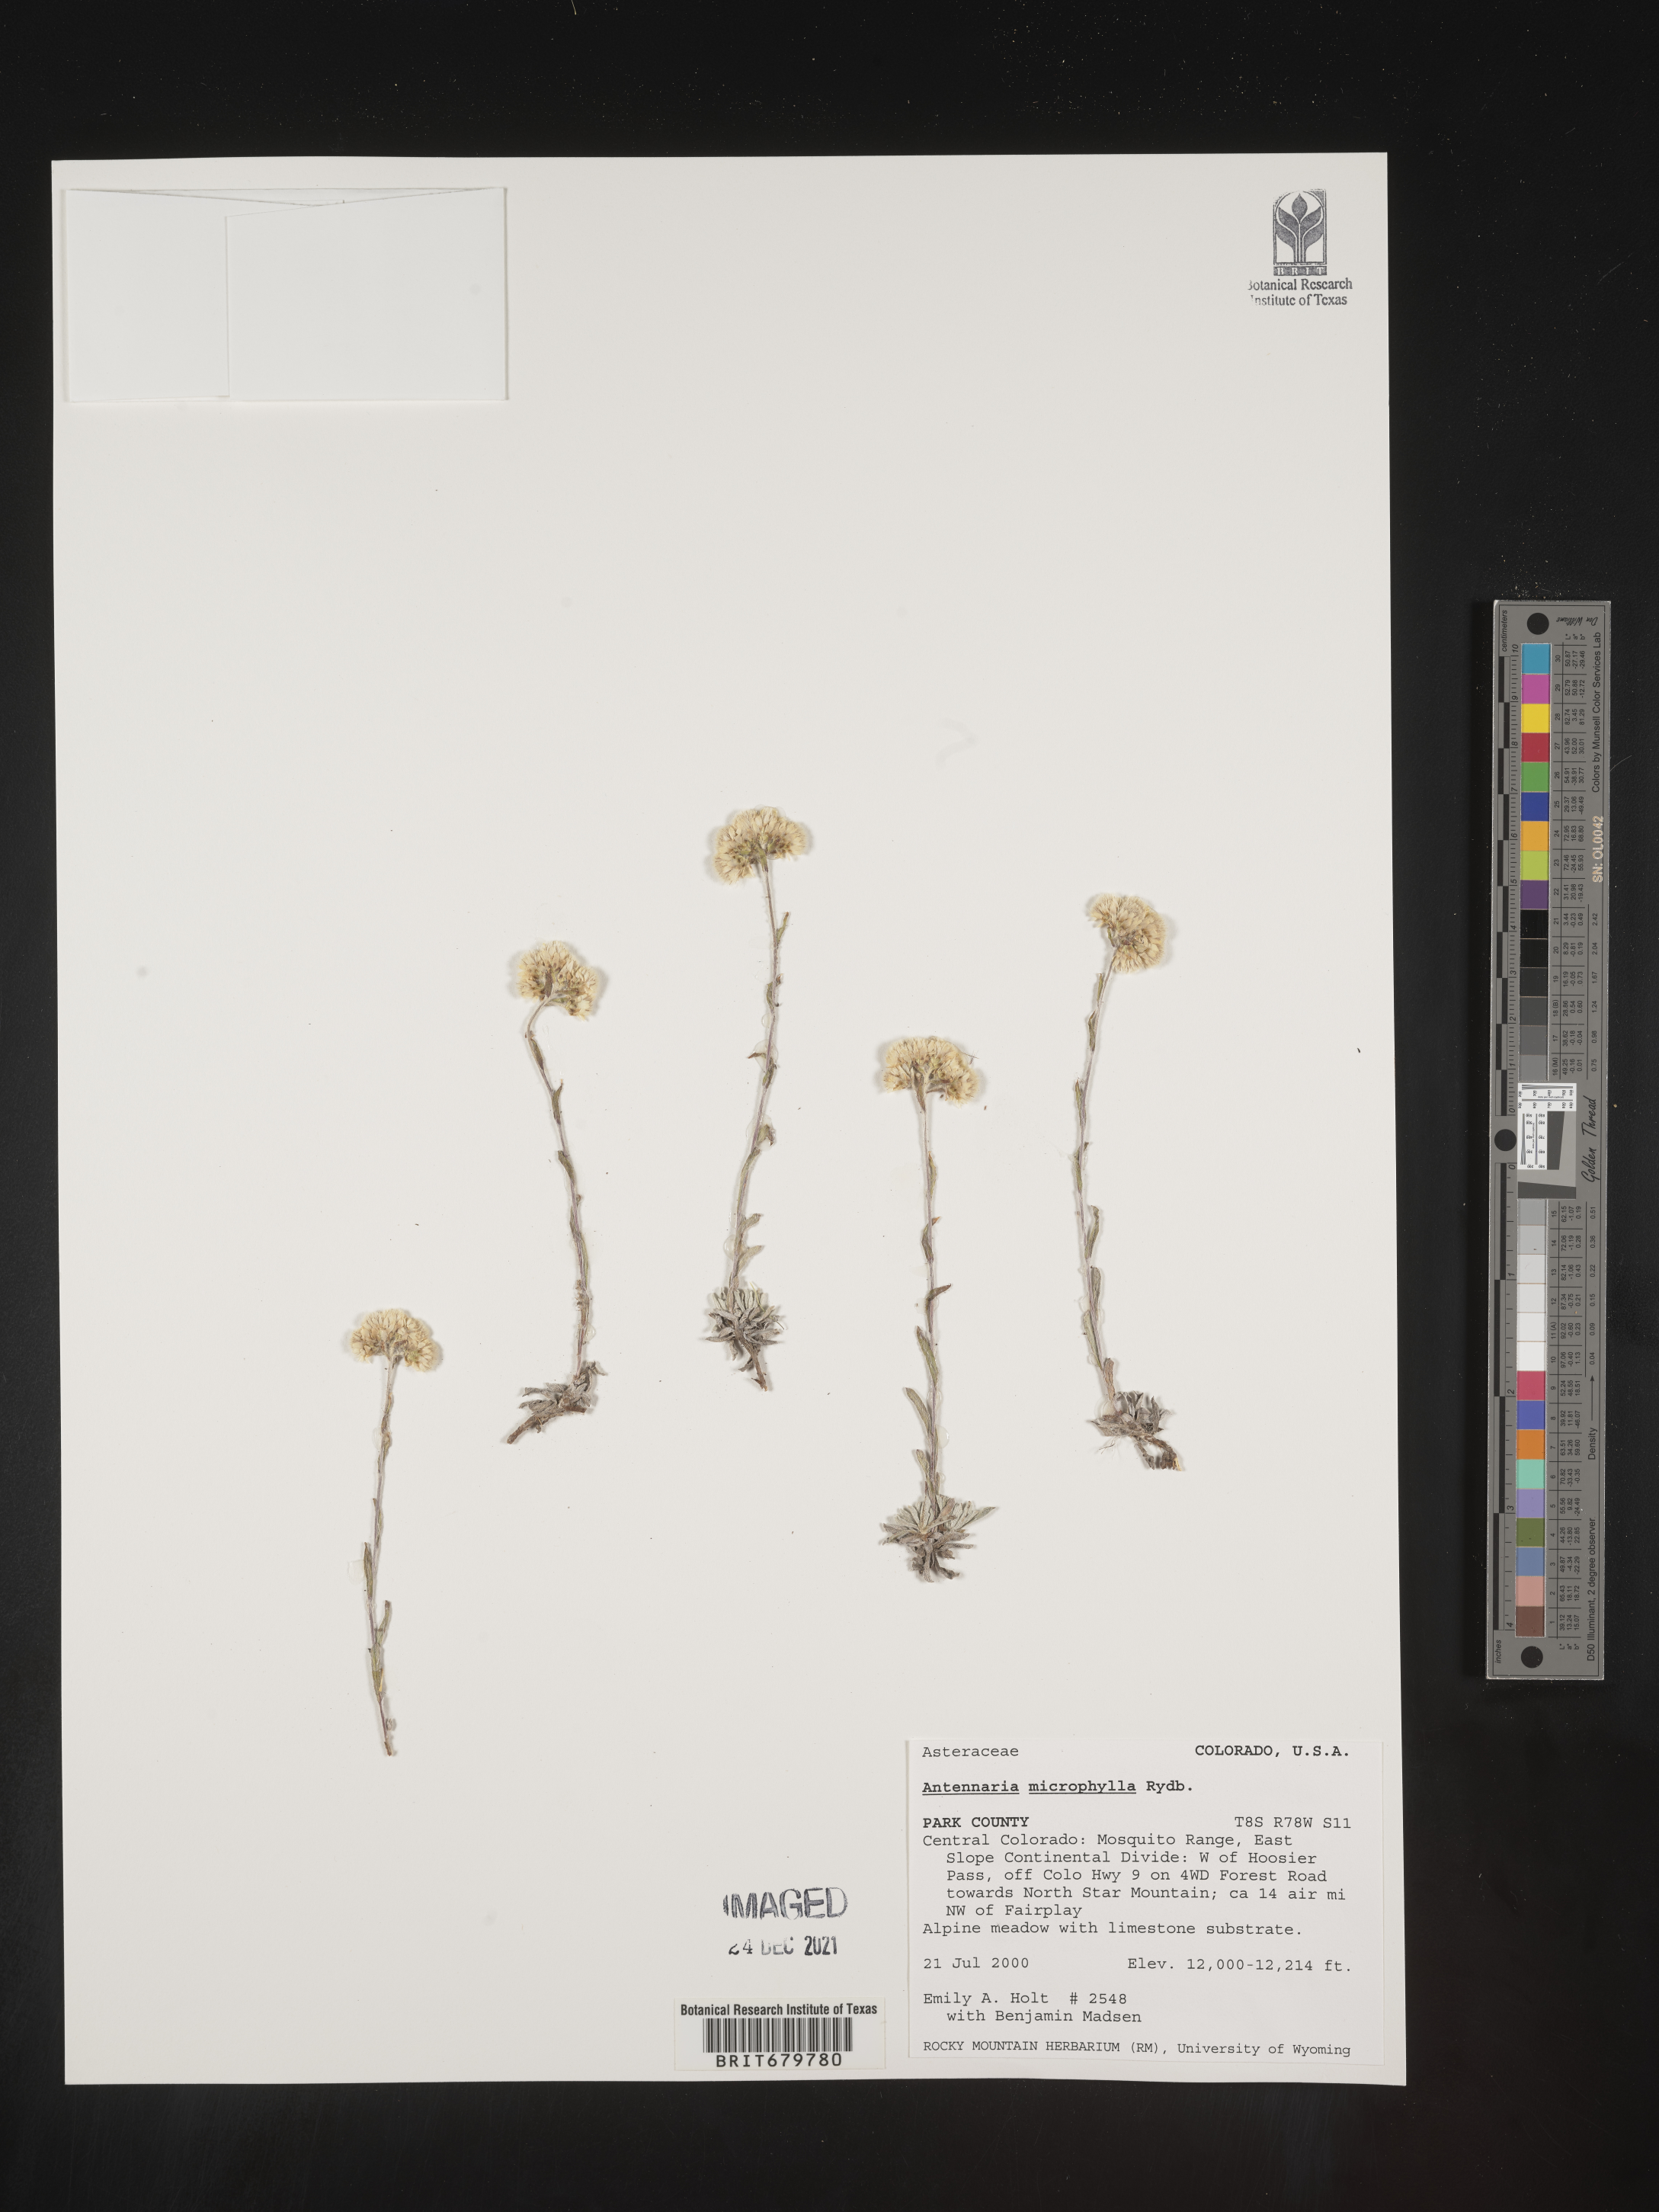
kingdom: Plantae
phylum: Tracheophyta
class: Magnoliopsida
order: Asterales
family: Asteraceae
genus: Antennaria
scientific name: Antennaria microphylla
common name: Littleleaf pussytoes
